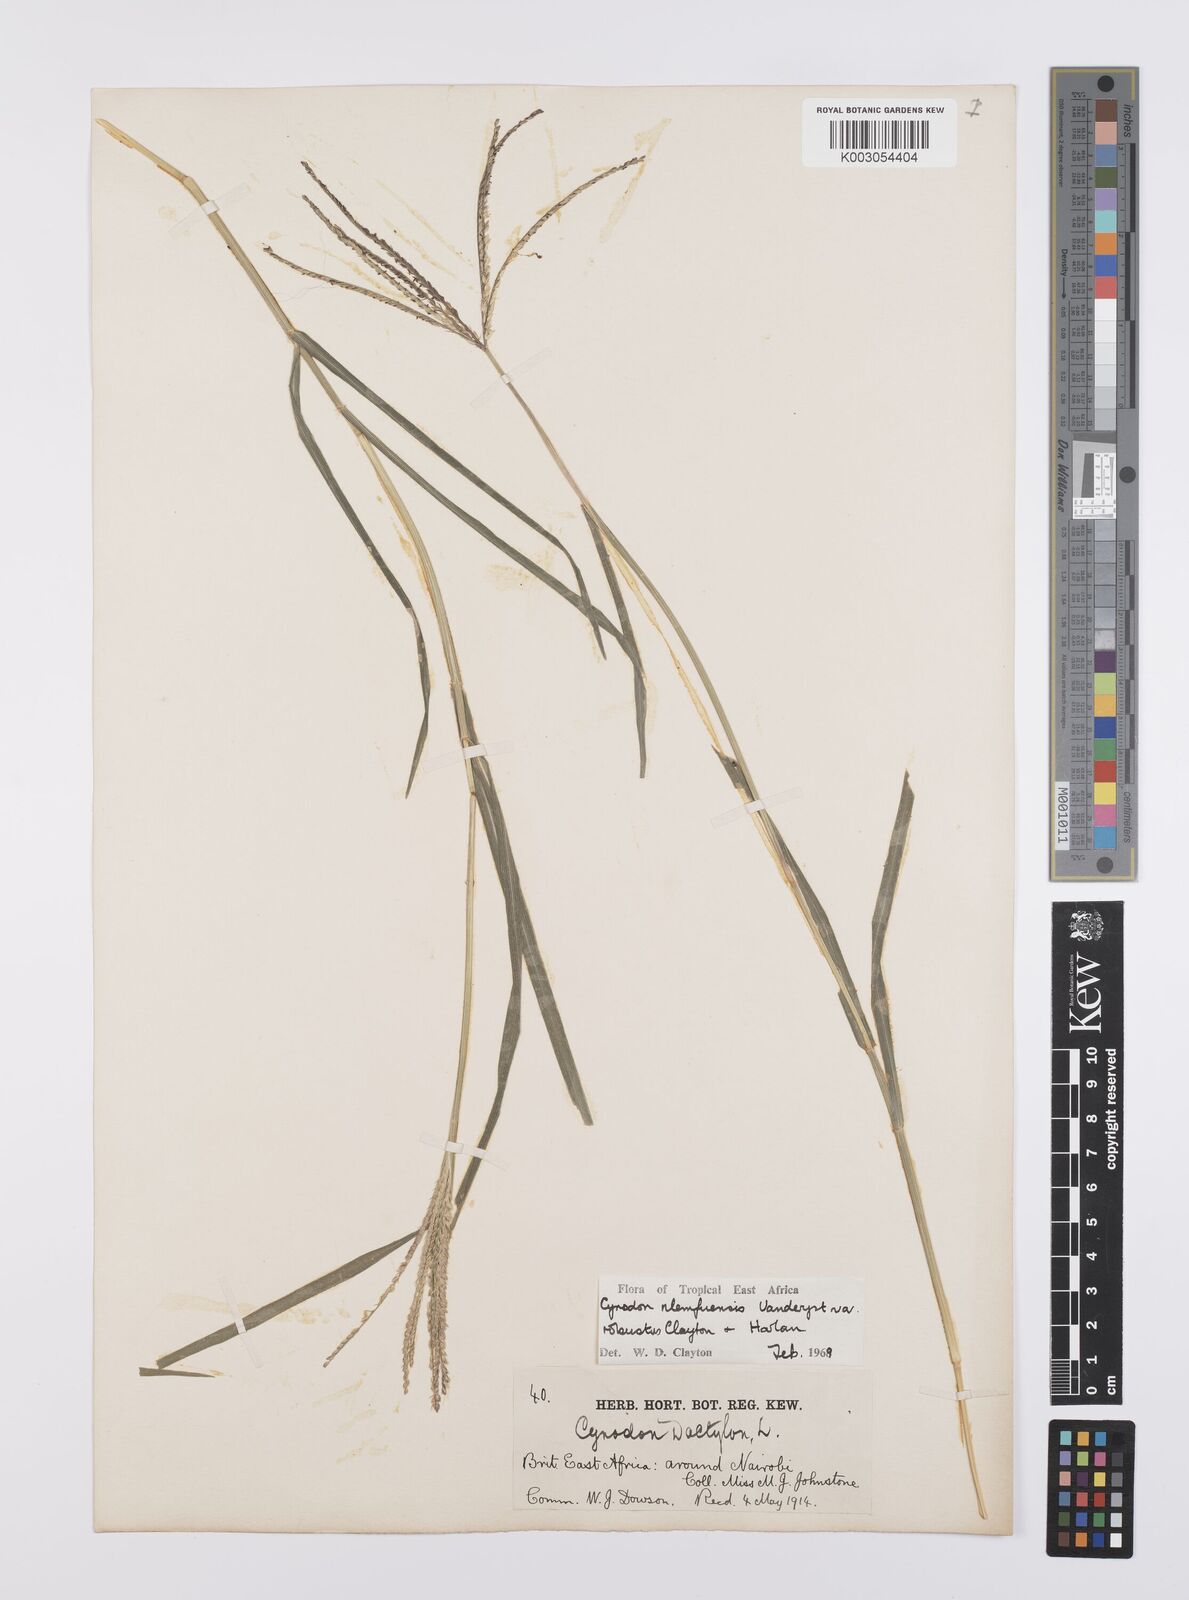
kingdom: Plantae
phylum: Tracheophyta
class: Liliopsida
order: Poales
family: Poaceae
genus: Cynodon
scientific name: Cynodon nlemfuensis
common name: African bermudagrass
